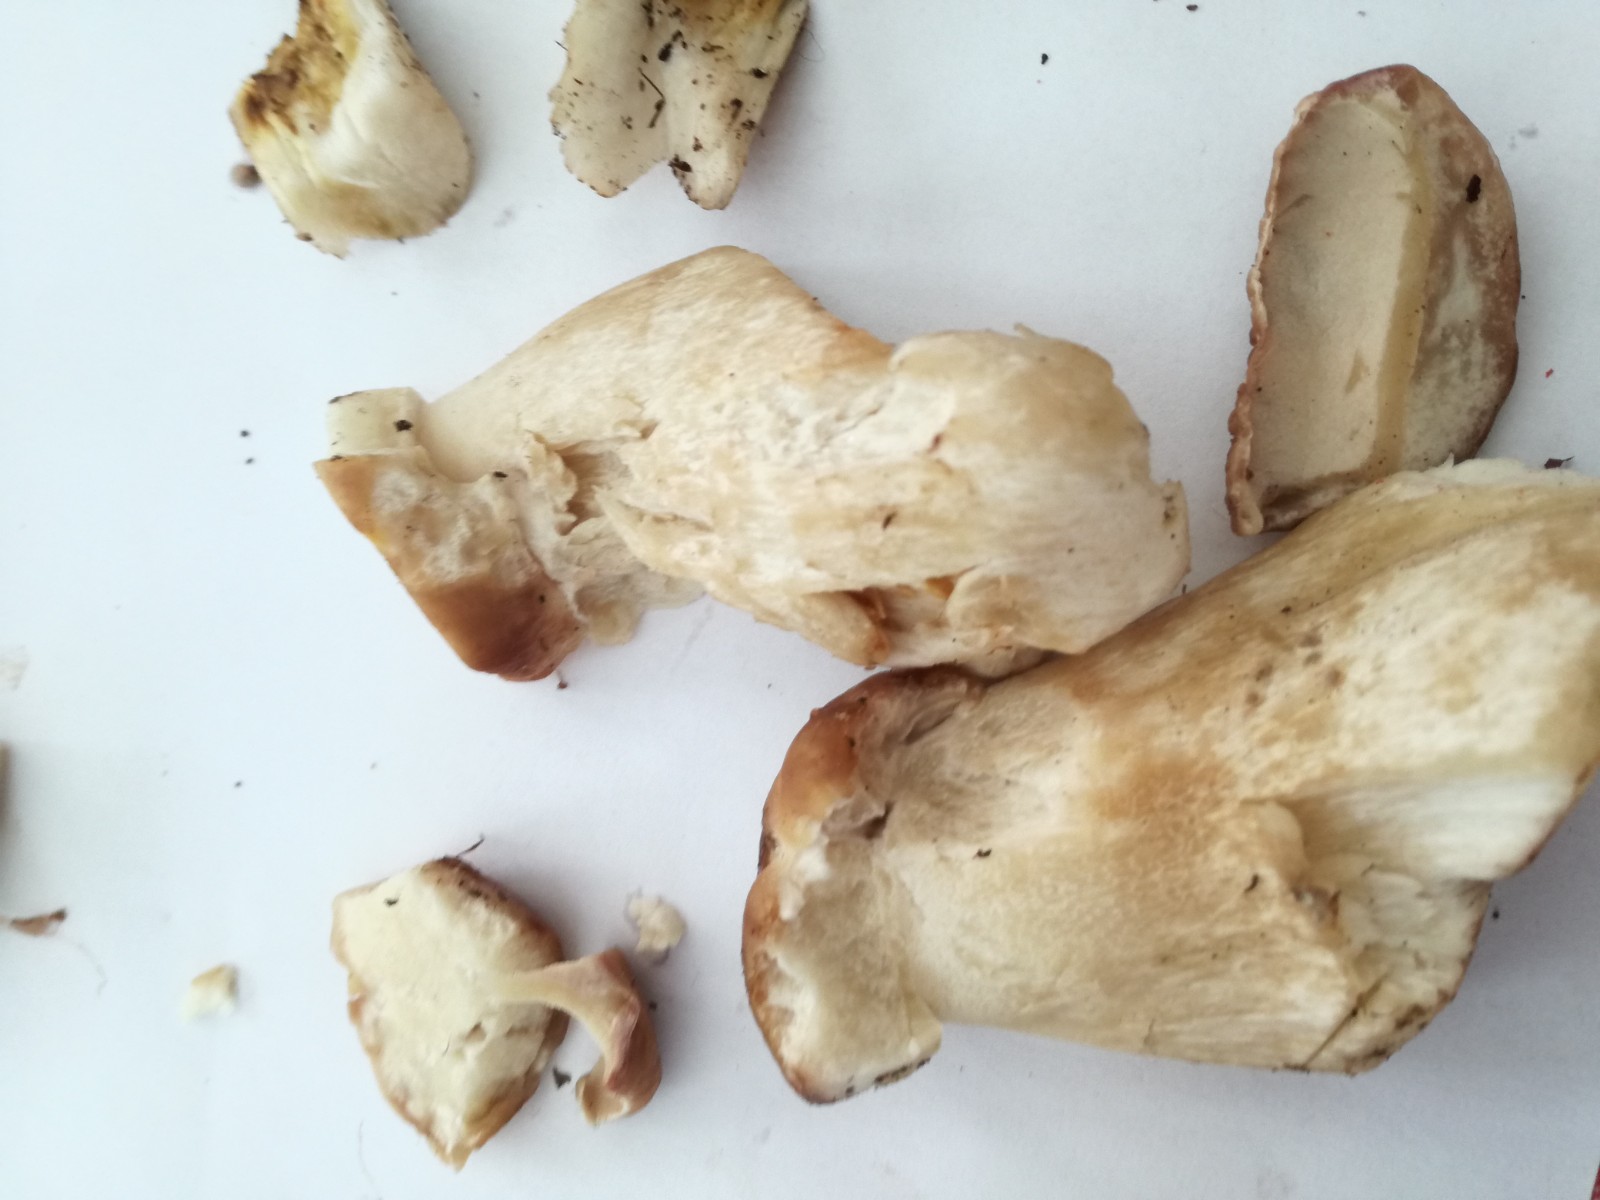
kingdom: Fungi
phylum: Basidiomycota
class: Agaricomycetes
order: Boletales
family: Boletaceae
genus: Boletus
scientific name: Boletus edulis
